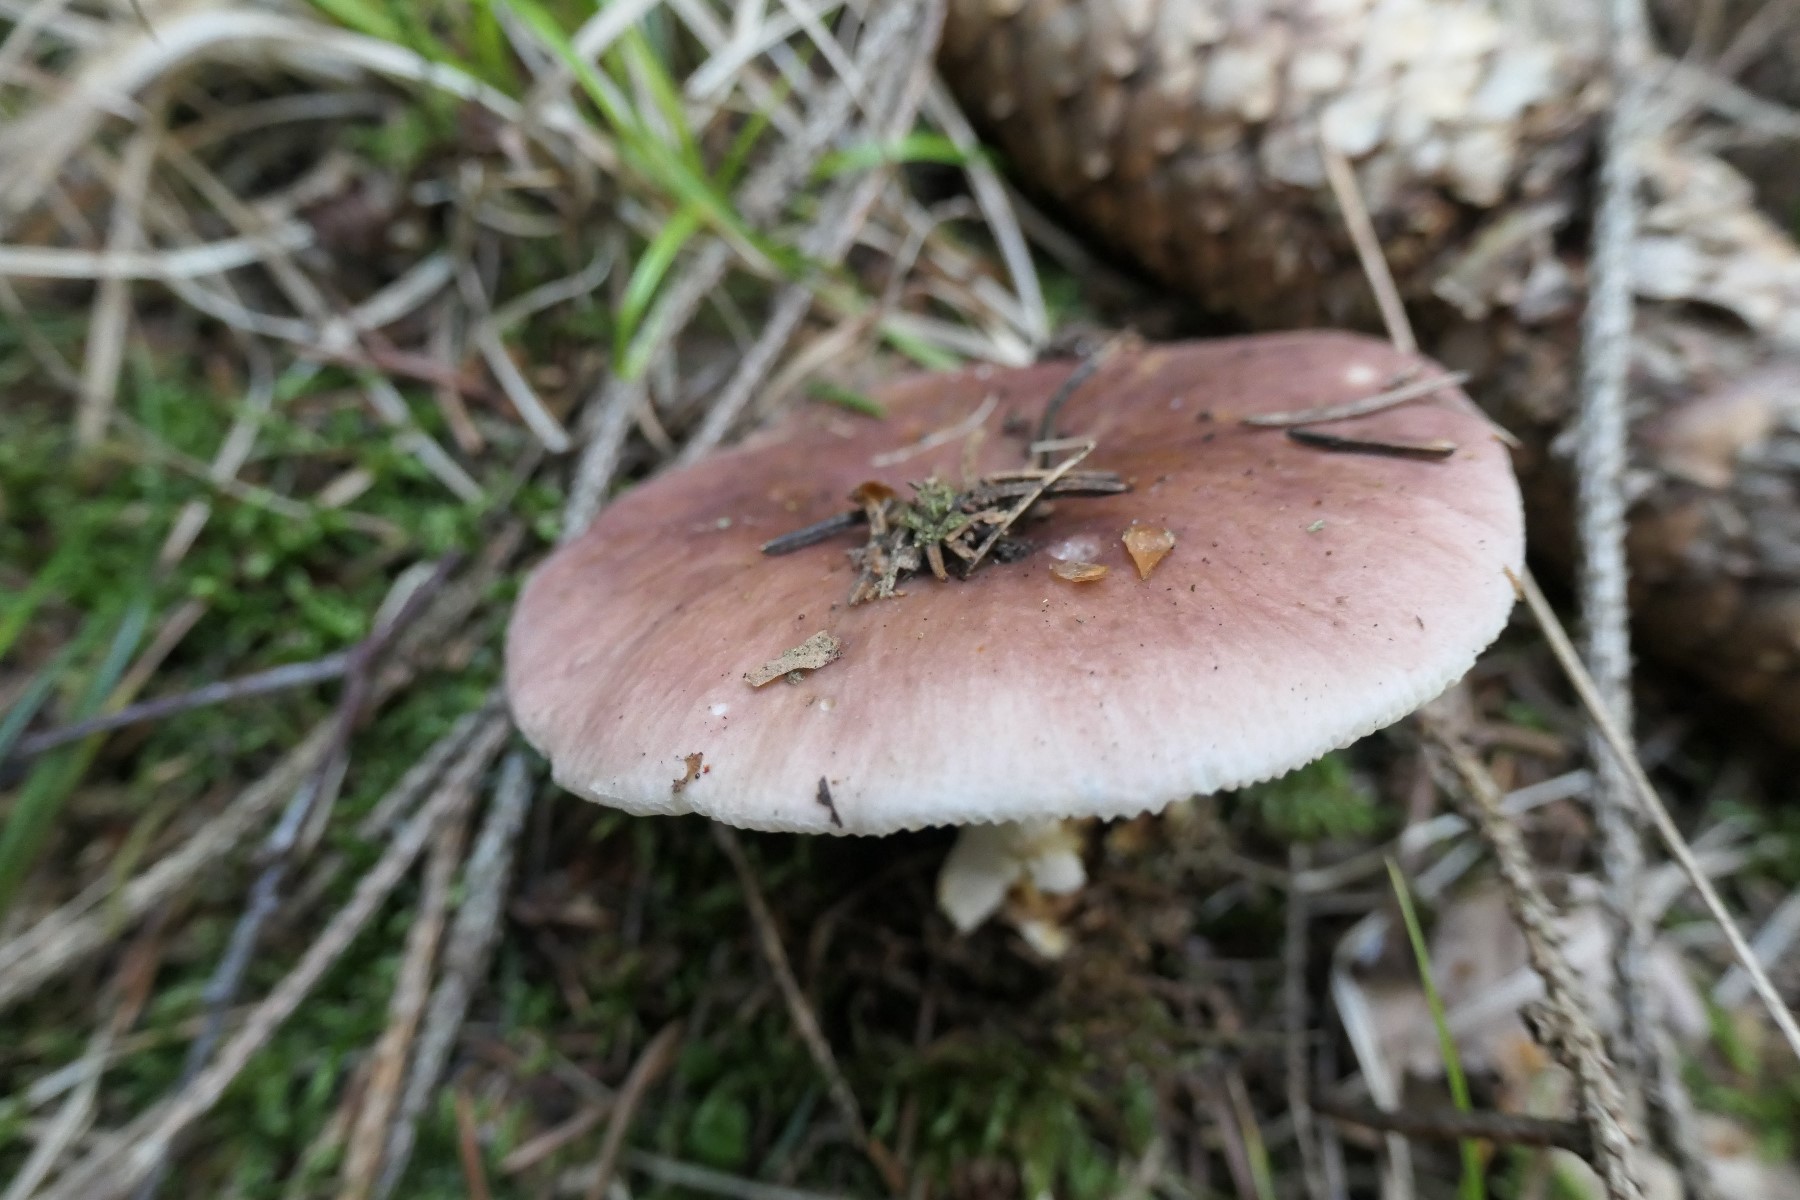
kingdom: Fungi
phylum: Basidiomycota
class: Agaricomycetes
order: Russulales
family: Russulaceae
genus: Russula
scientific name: Russula vesca
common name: spiselig skørhat
